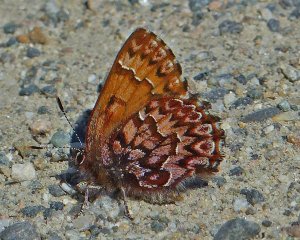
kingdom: Animalia
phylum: Arthropoda
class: Insecta
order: Lepidoptera
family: Lycaenidae
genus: Incisalia
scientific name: Incisalia eryphon
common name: Western Pine Elfin
